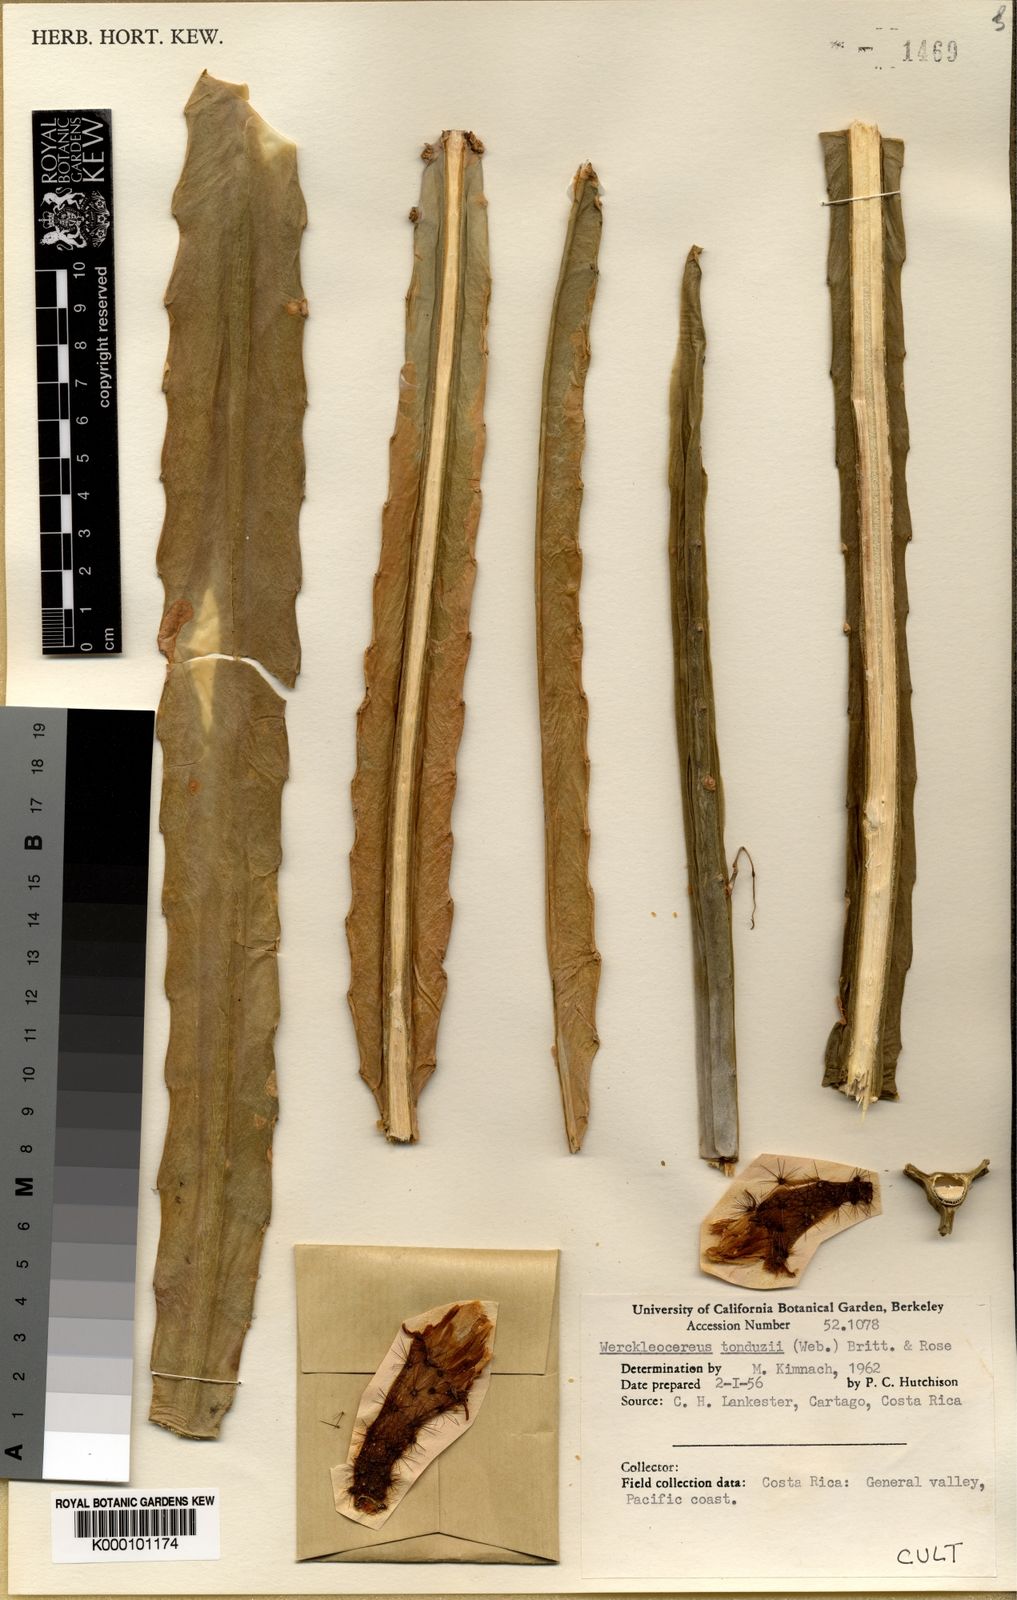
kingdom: Plantae
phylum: Tracheophyta
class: Magnoliopsida
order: Caryophyllales
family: Cactaceae
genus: Selenicereus
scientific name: Selenicereus tonduzii
